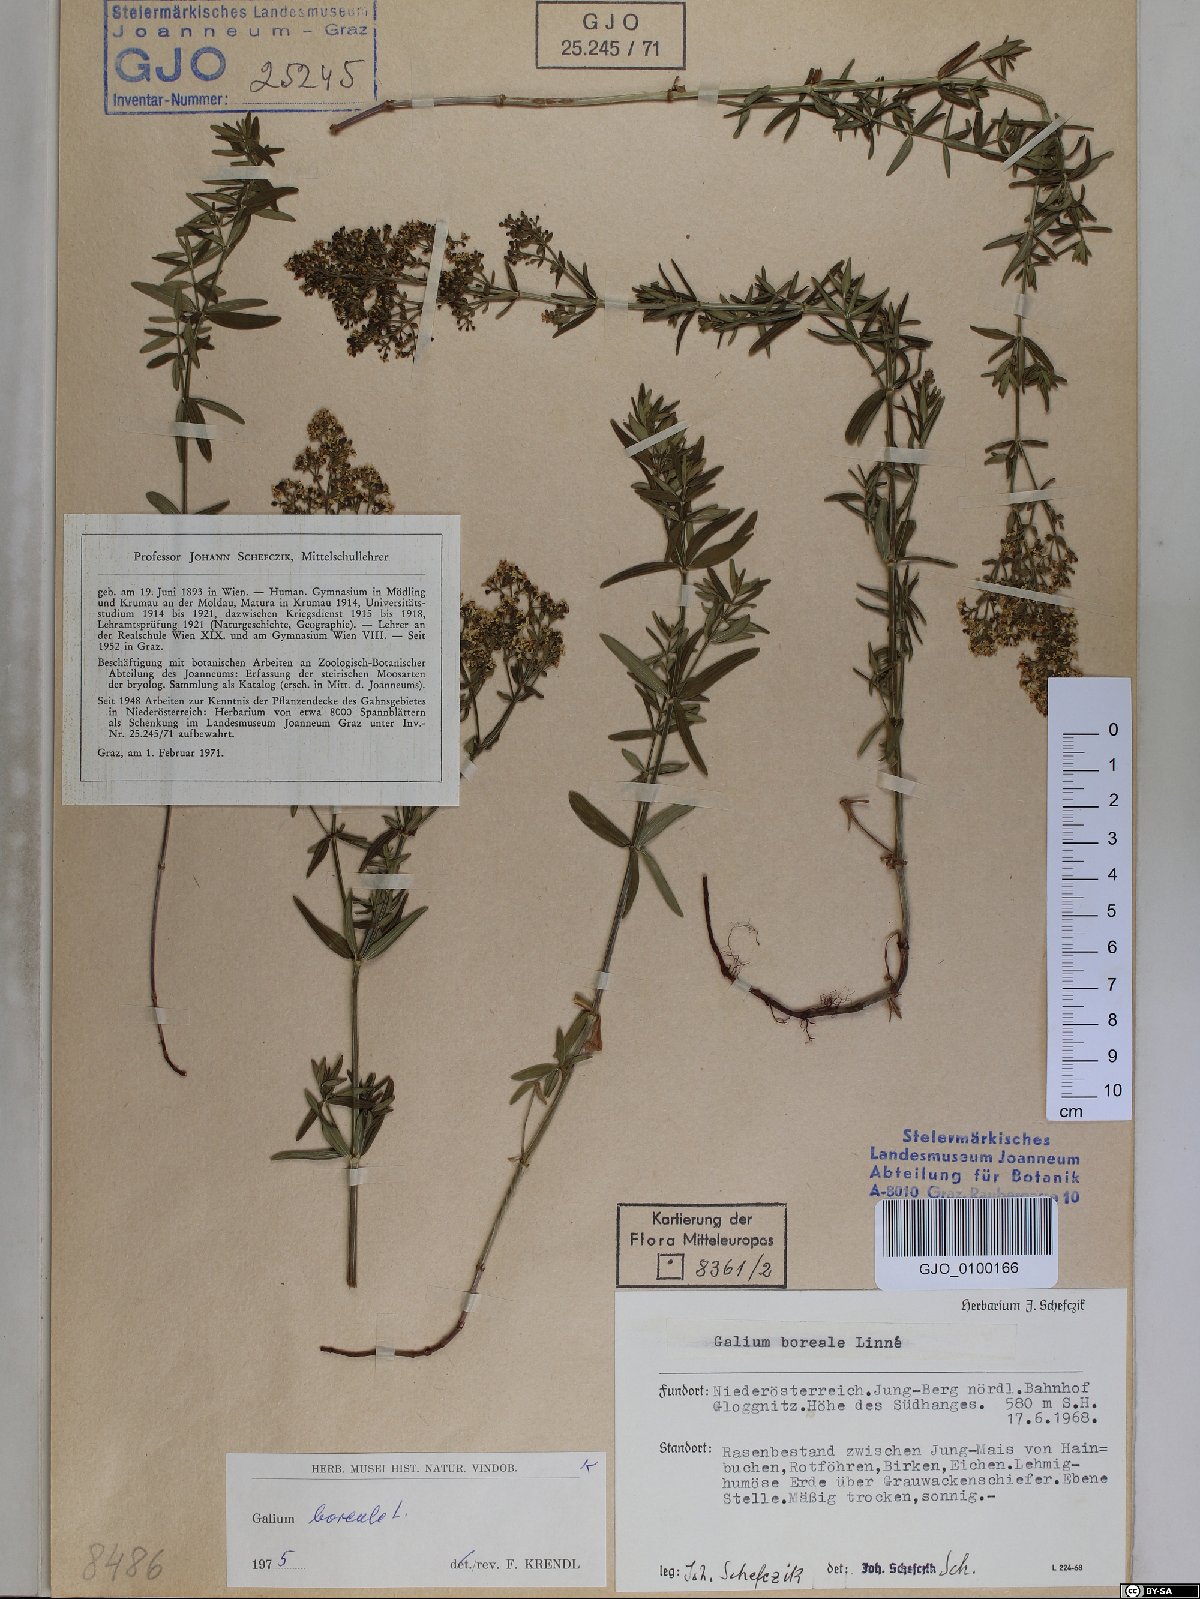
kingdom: Plantae
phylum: Tracheophyta
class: Magnoliopsida
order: Gentianales
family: Rubiaceae
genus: Galium
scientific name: Galium boreale
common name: Northern bedstraw
